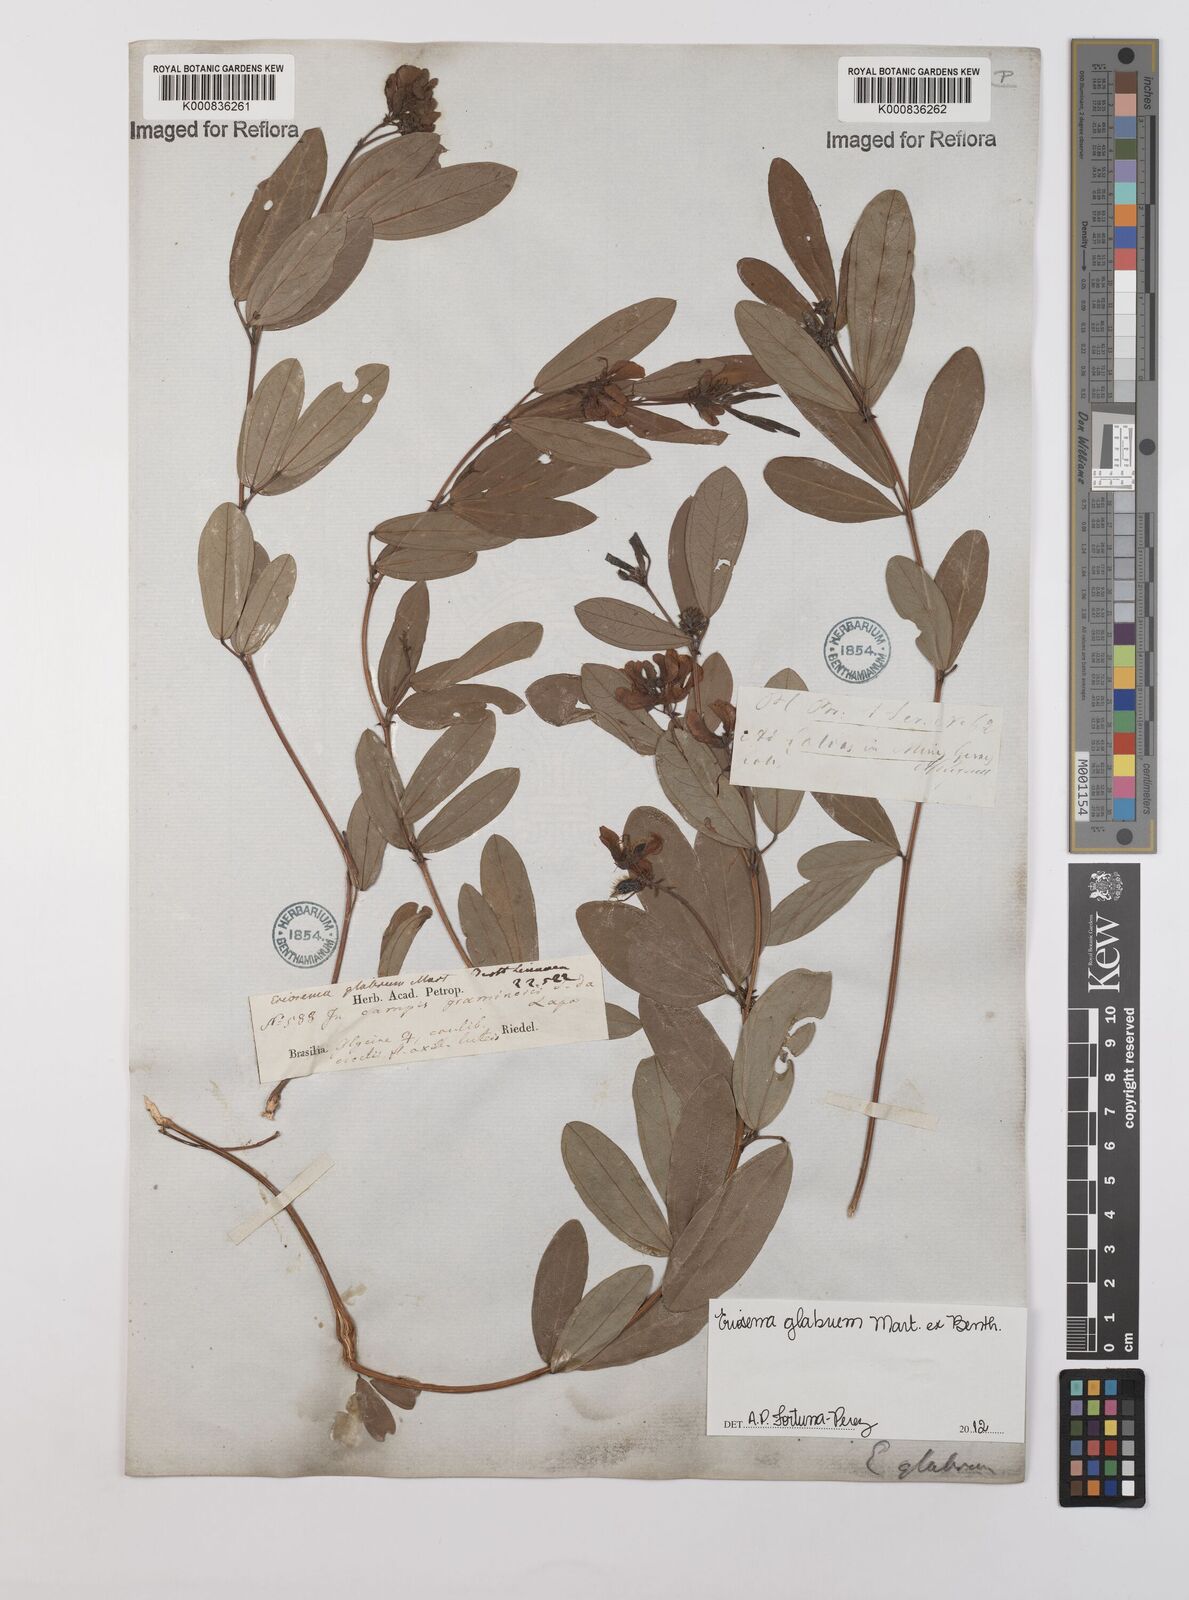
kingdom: Plantae
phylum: Tracheophyta
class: Magnoliopsida
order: Fabales
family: Fabaceae
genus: Eriosema
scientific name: Eriosema glabrum
